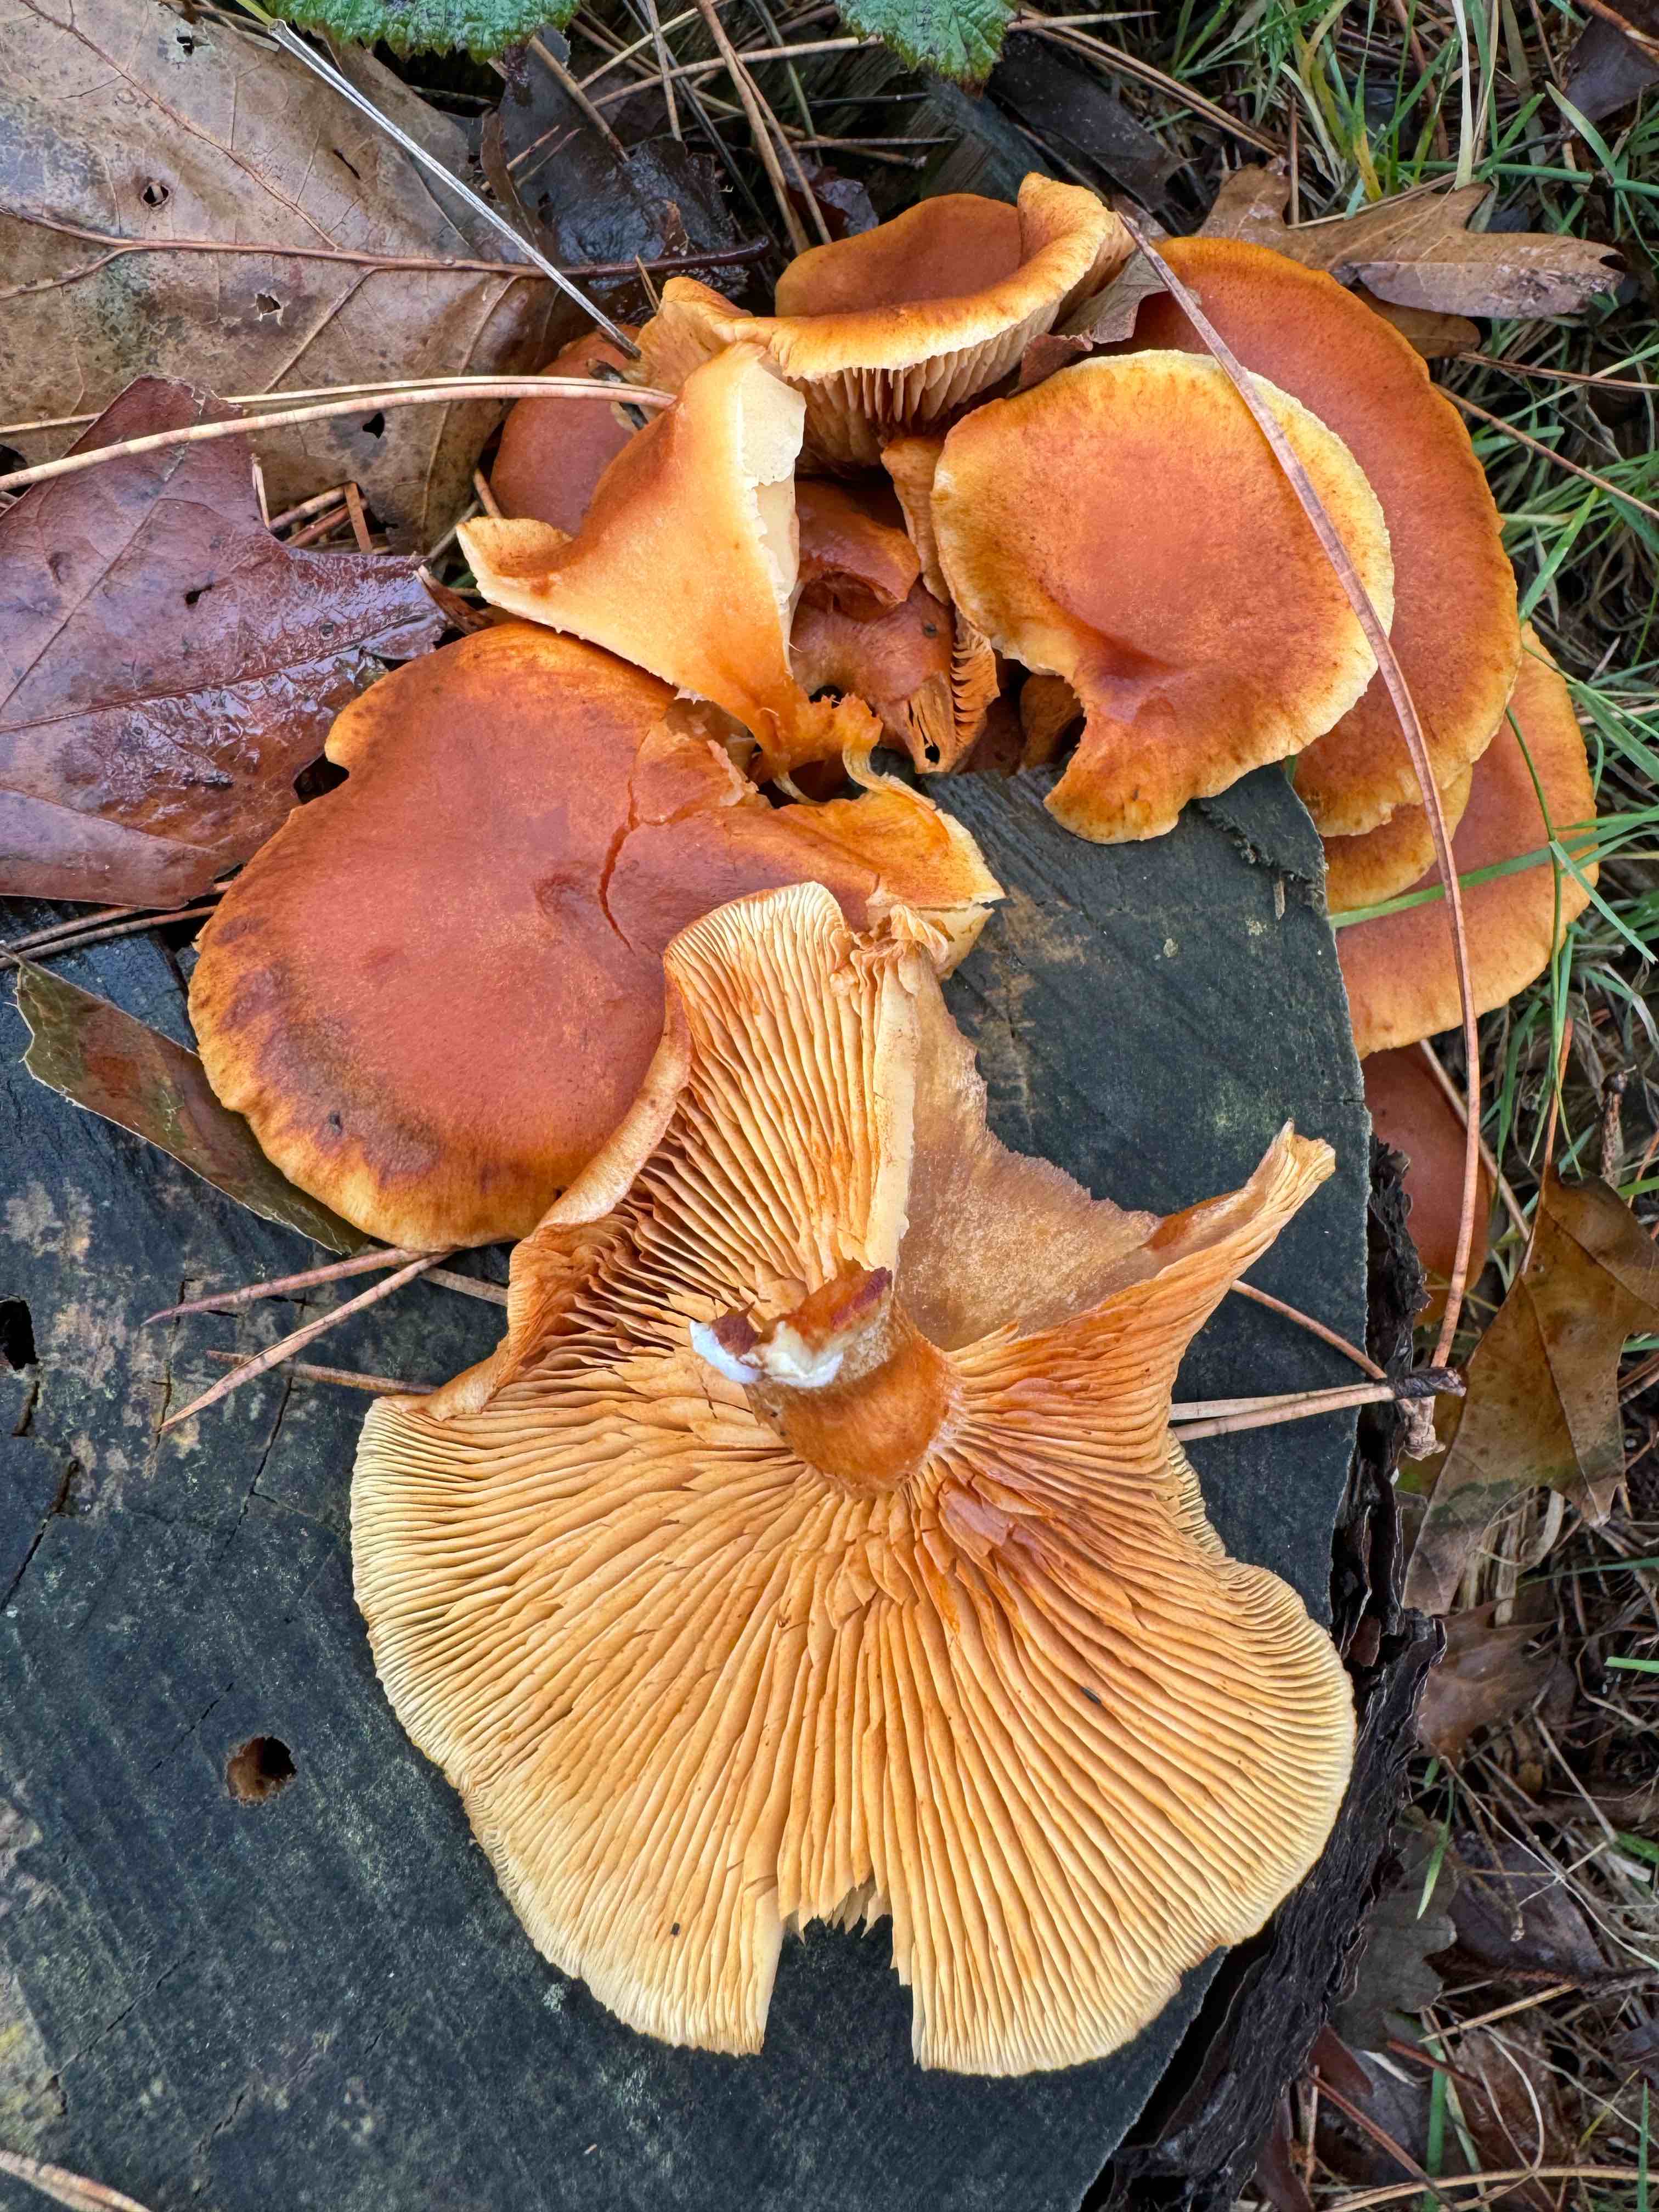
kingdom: Fungi
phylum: Basidiomycota
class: Agaricomycetes
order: Agaricales
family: Hymenogastraceae
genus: Gymnopilus
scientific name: Gymnopilus penetrans
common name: plettet flammehat
